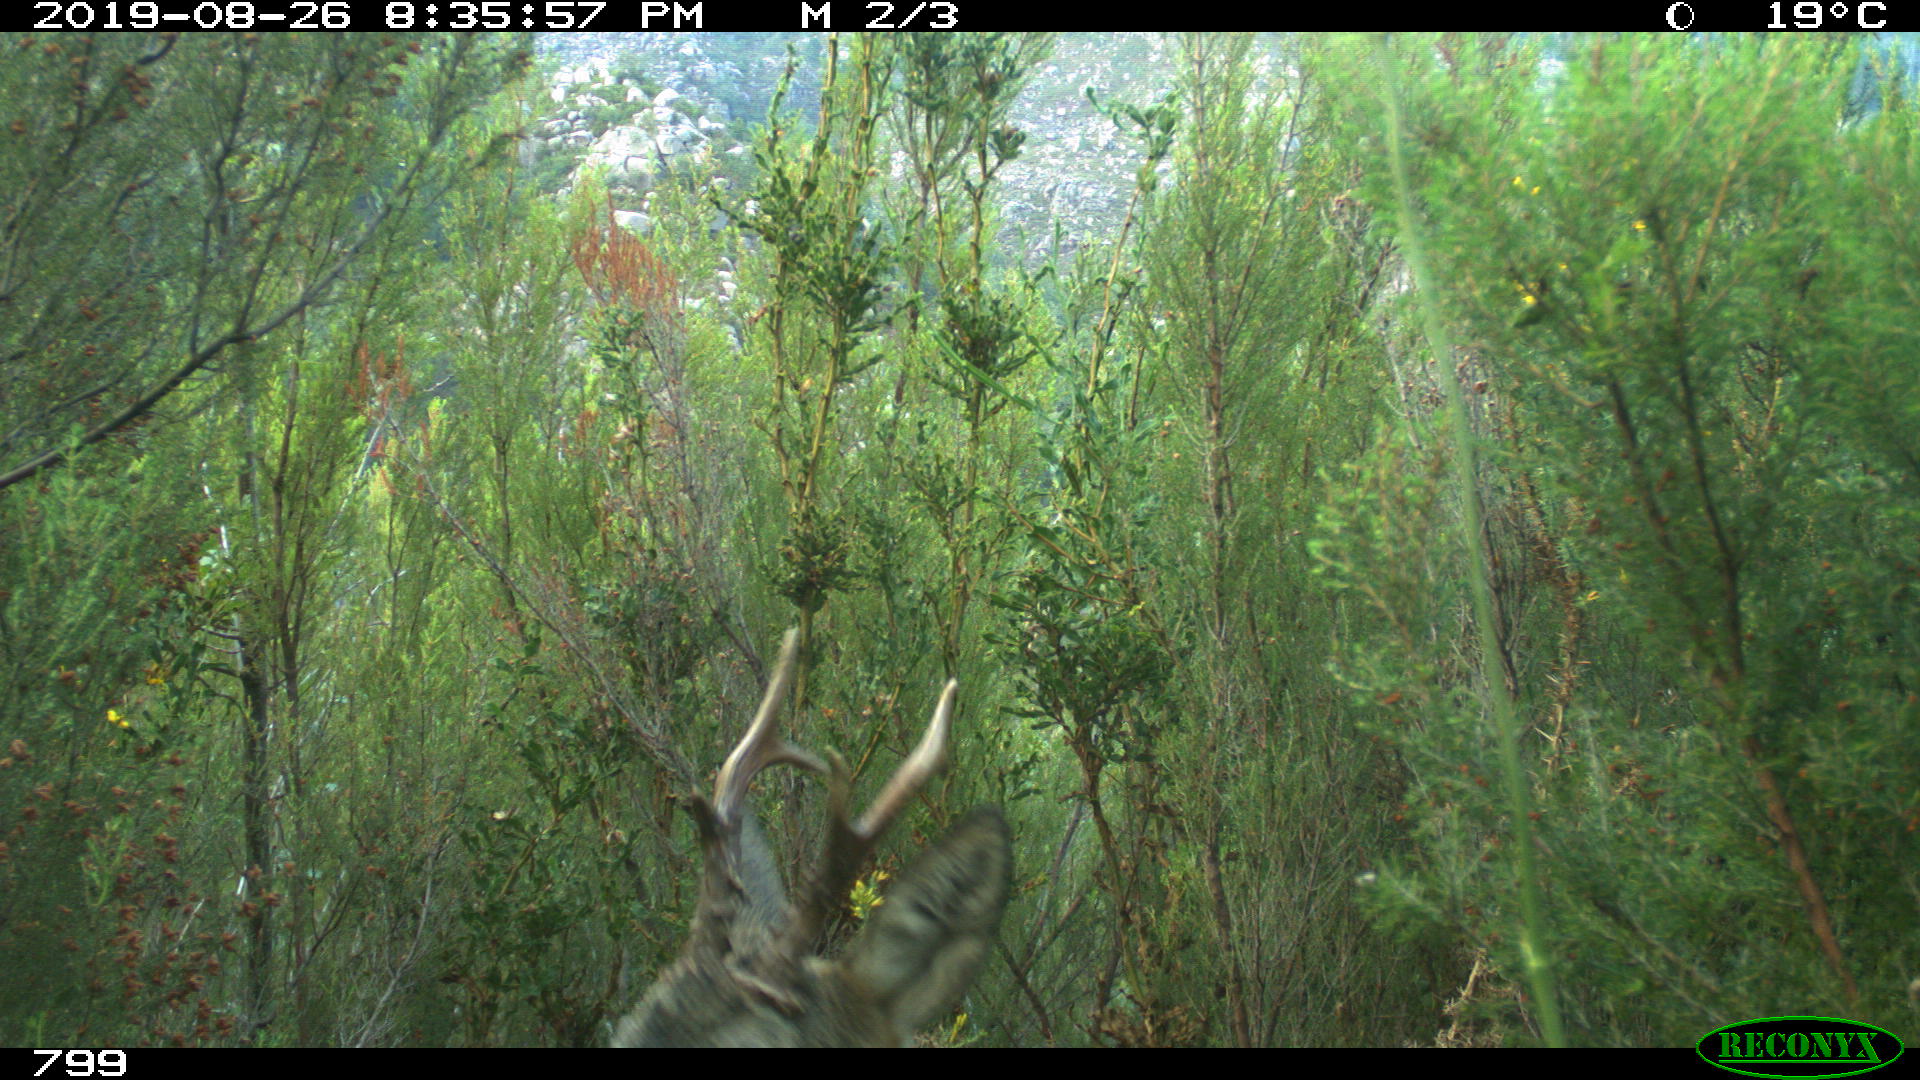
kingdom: Animalia
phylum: Chordata
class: Mammalia
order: Artiodactyla
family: Cervidae
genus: Capreolus
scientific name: Capreolus capreolus
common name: Western roe deer
